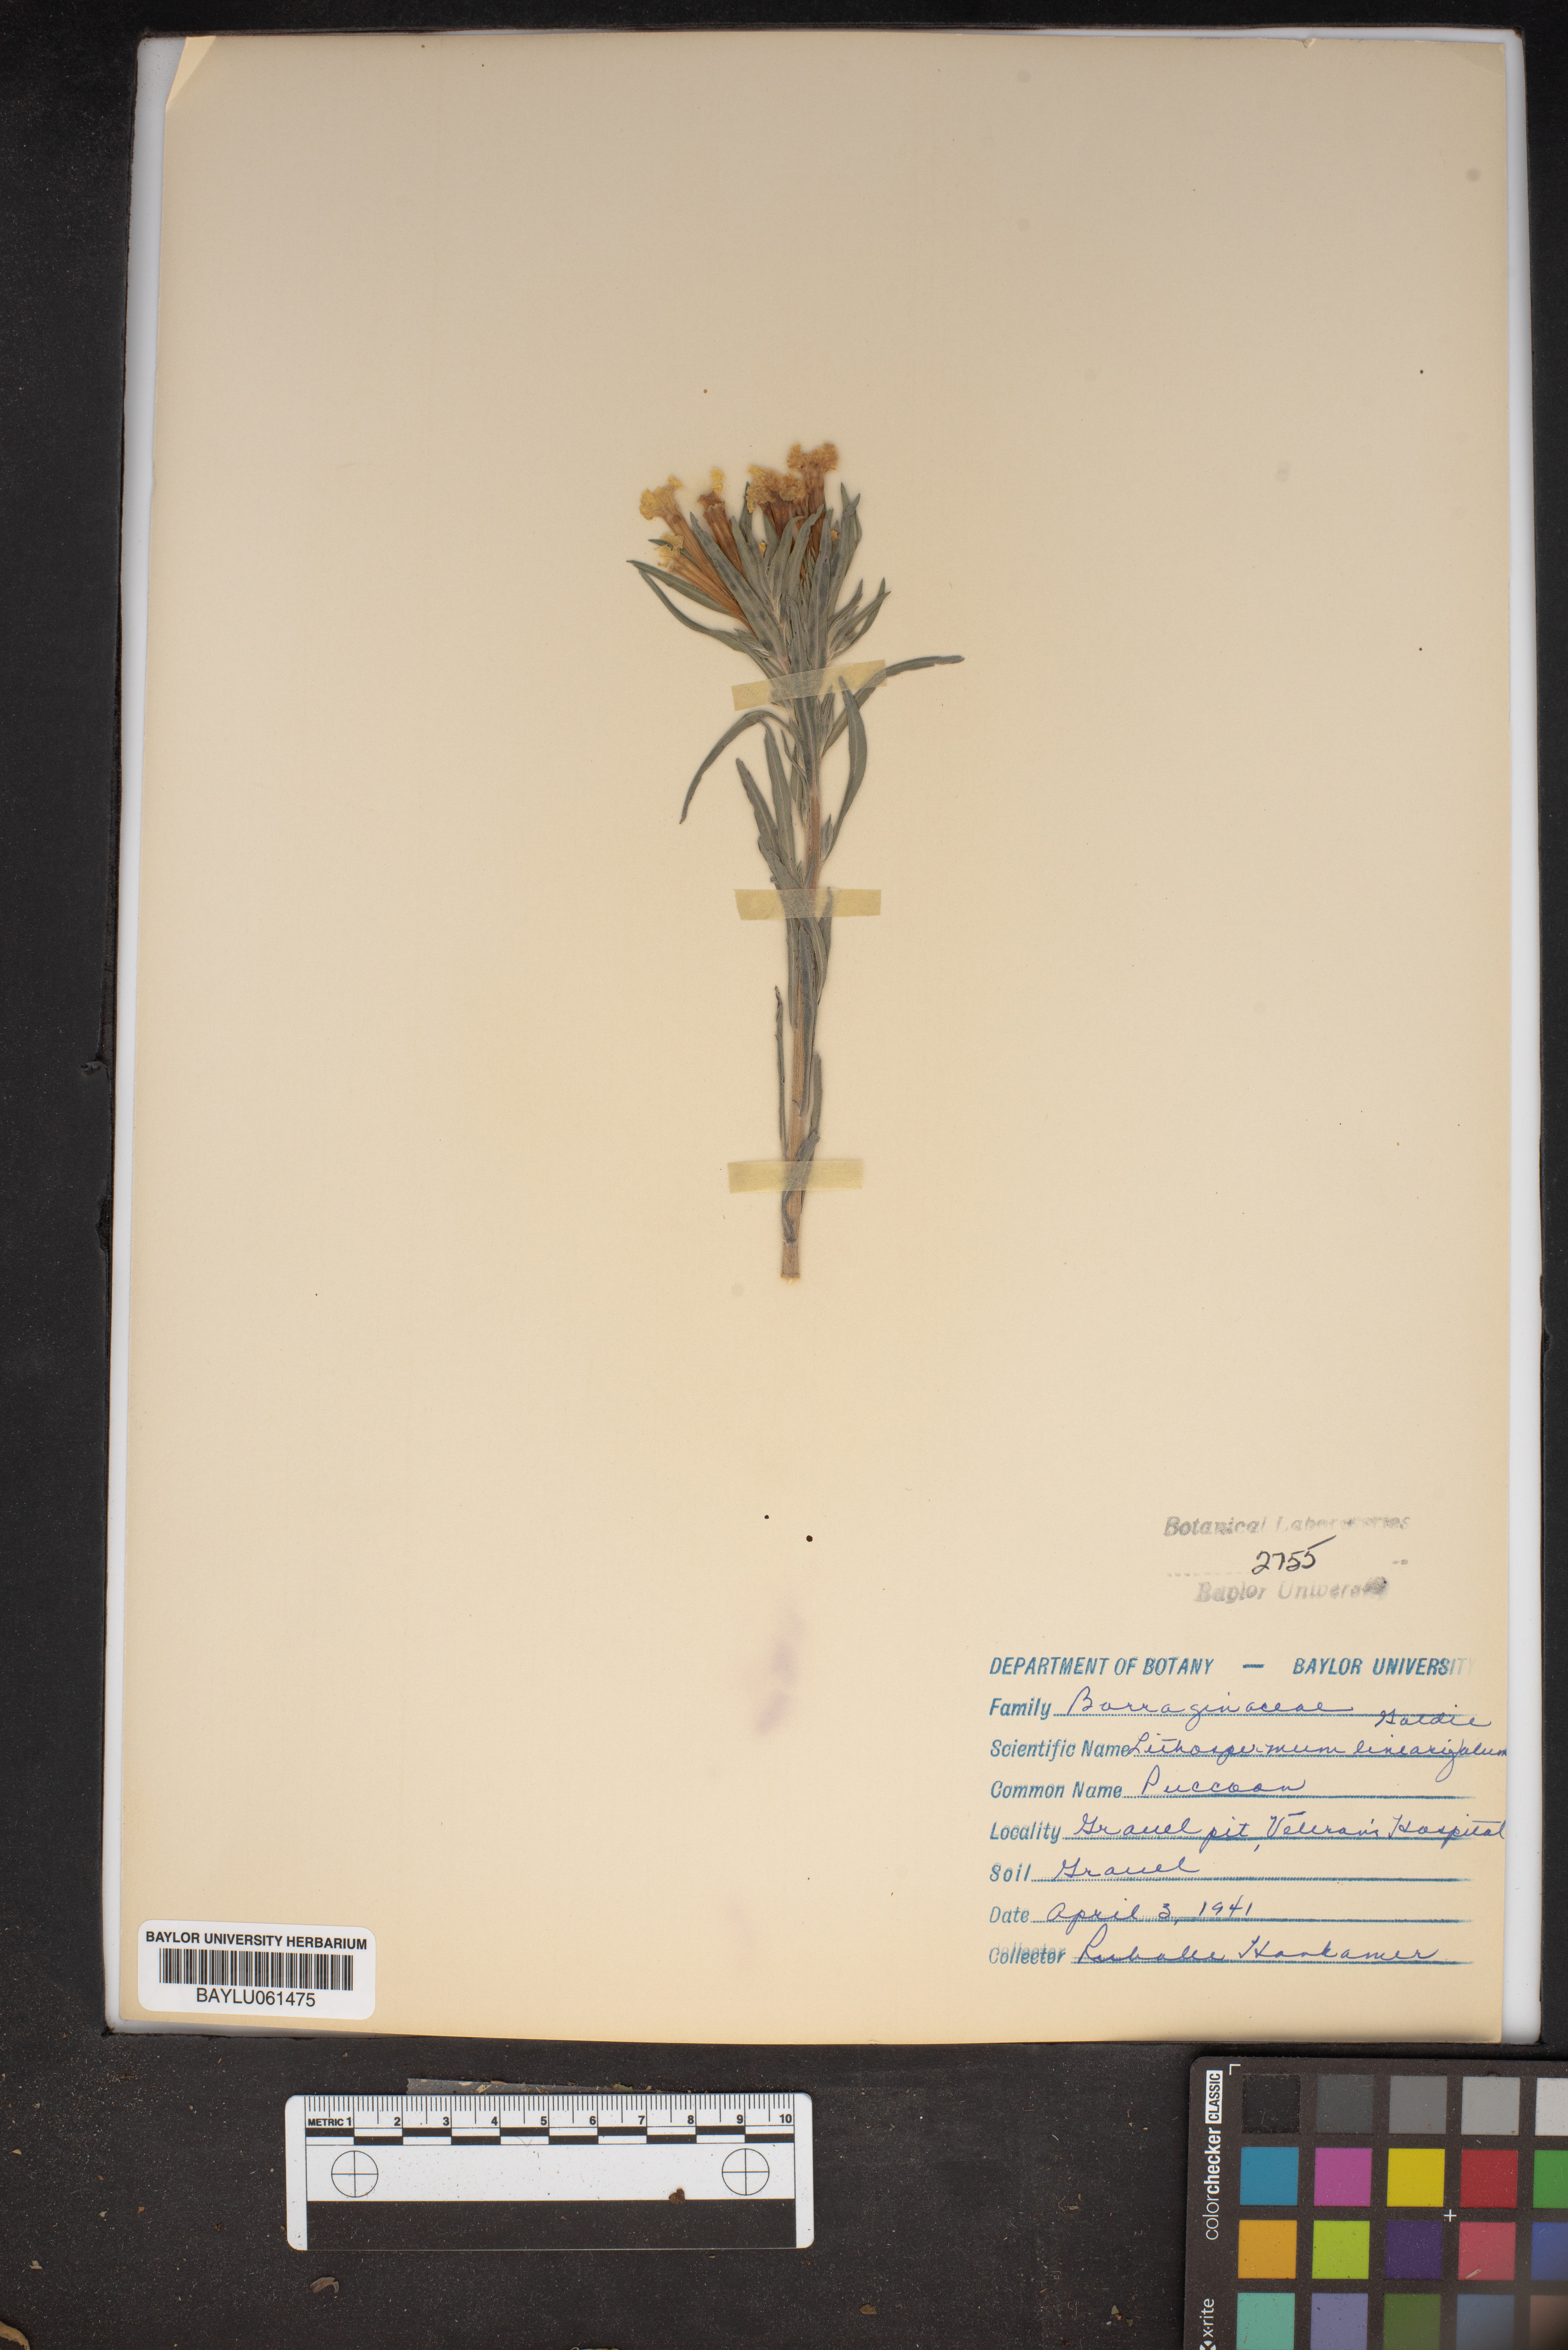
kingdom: Plantae
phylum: Tracheophyta
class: Magnoliopsida
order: Boraginales
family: Boraginaceae
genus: Lithospermum
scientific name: Lithospermum incisum
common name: Fringed gromwell
